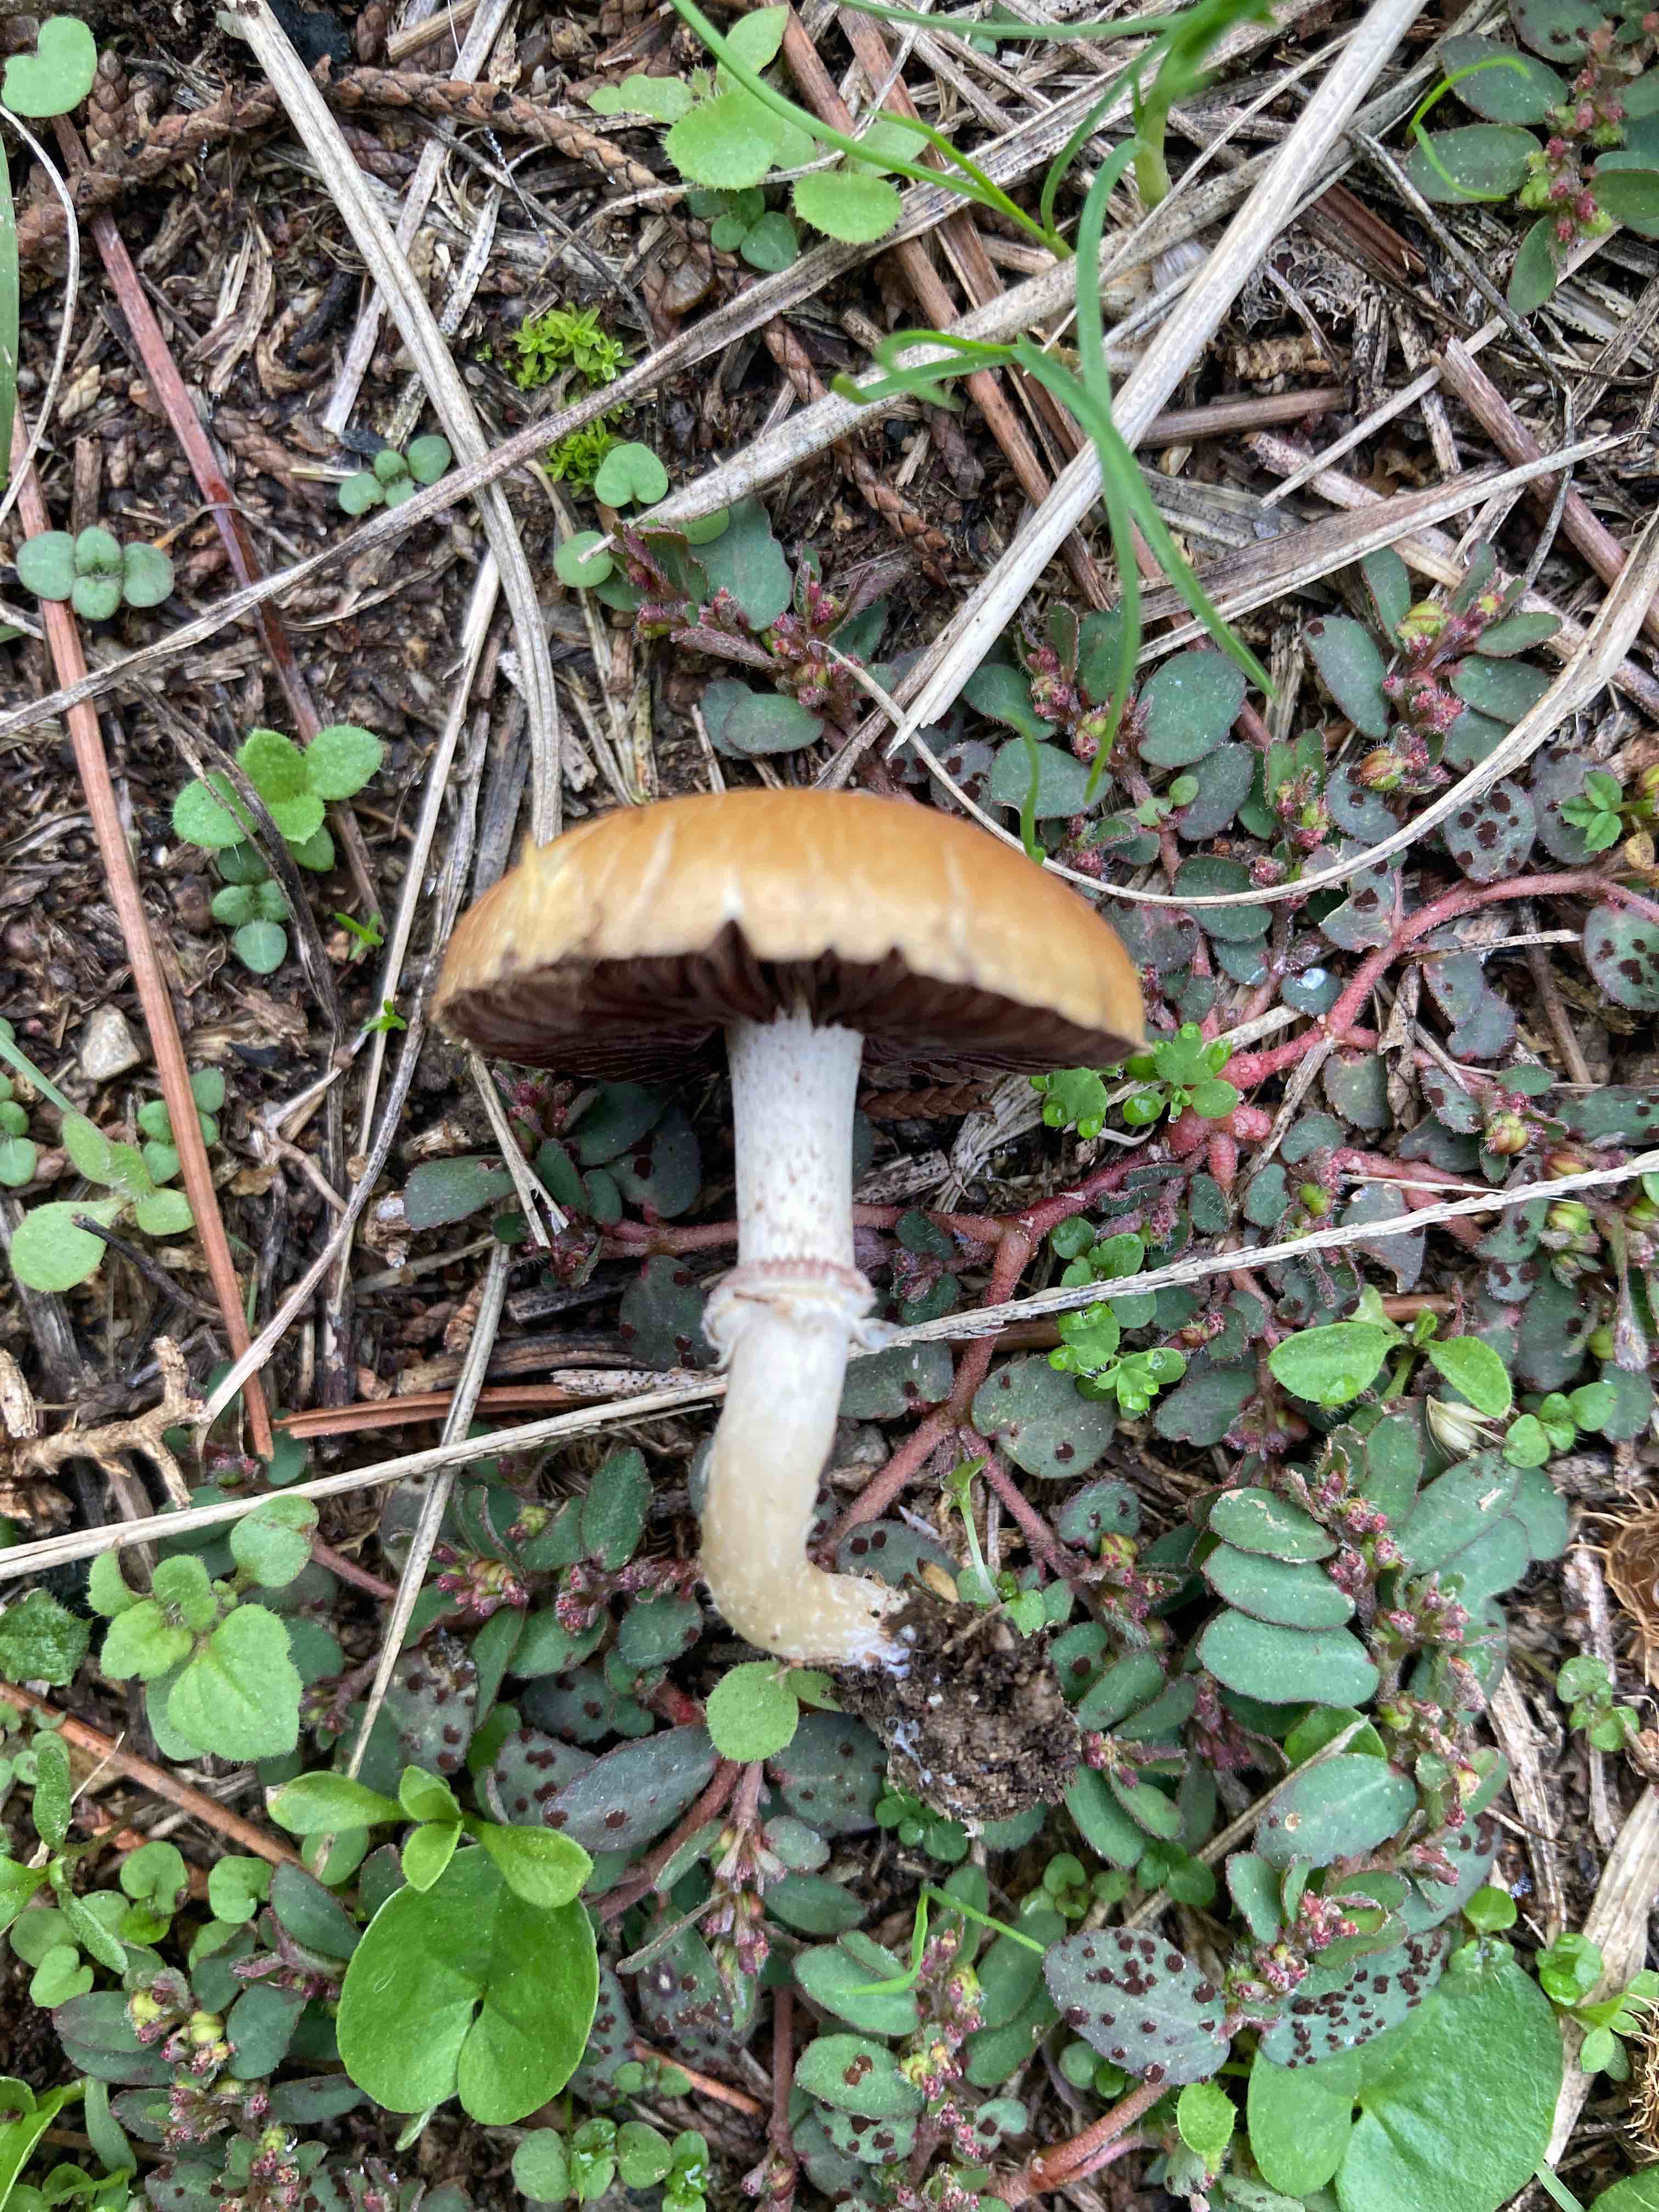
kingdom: Fungi
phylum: Basidiomycota
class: Agaricomycetes
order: Agaricales
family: Hymenogastraceae
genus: Psilocybe
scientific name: Psilocybe coronilla
